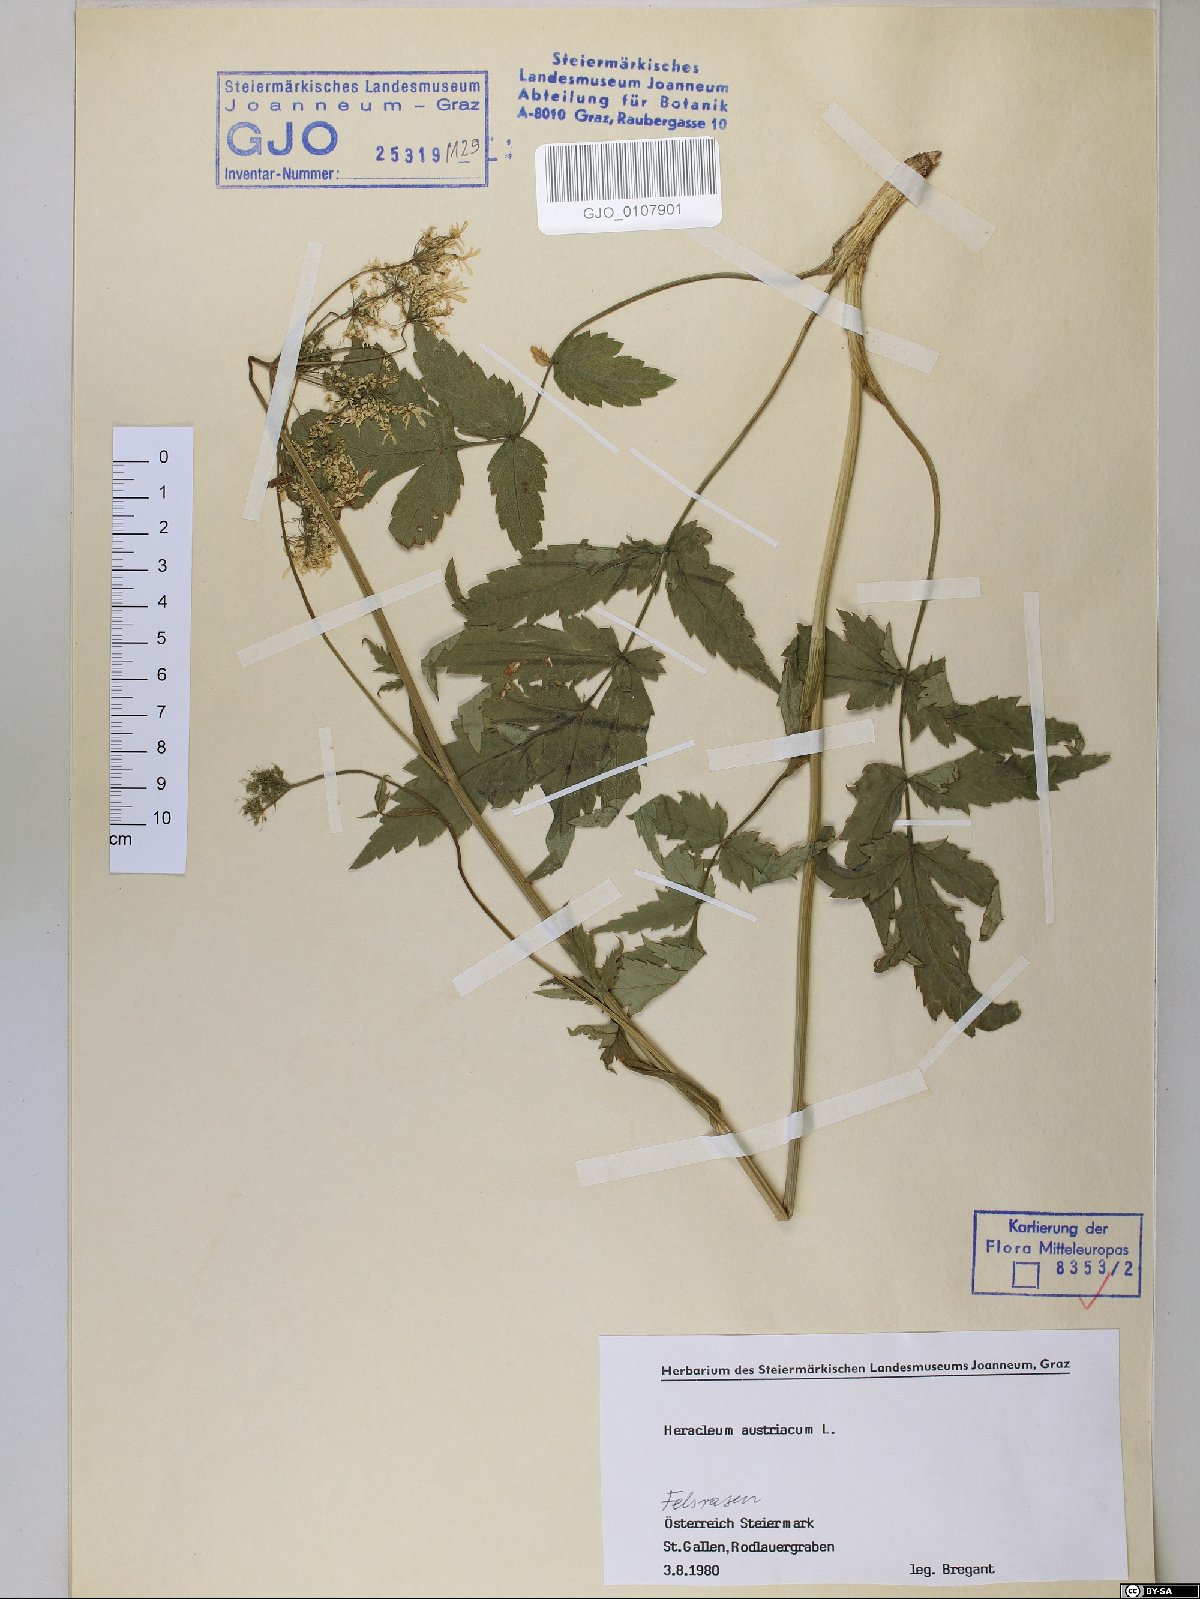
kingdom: Plantae
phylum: Tracheophyta
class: Magnoliopsida
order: Apiales
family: Apiaceae
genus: Heracleum
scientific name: Heracleum austriacum
